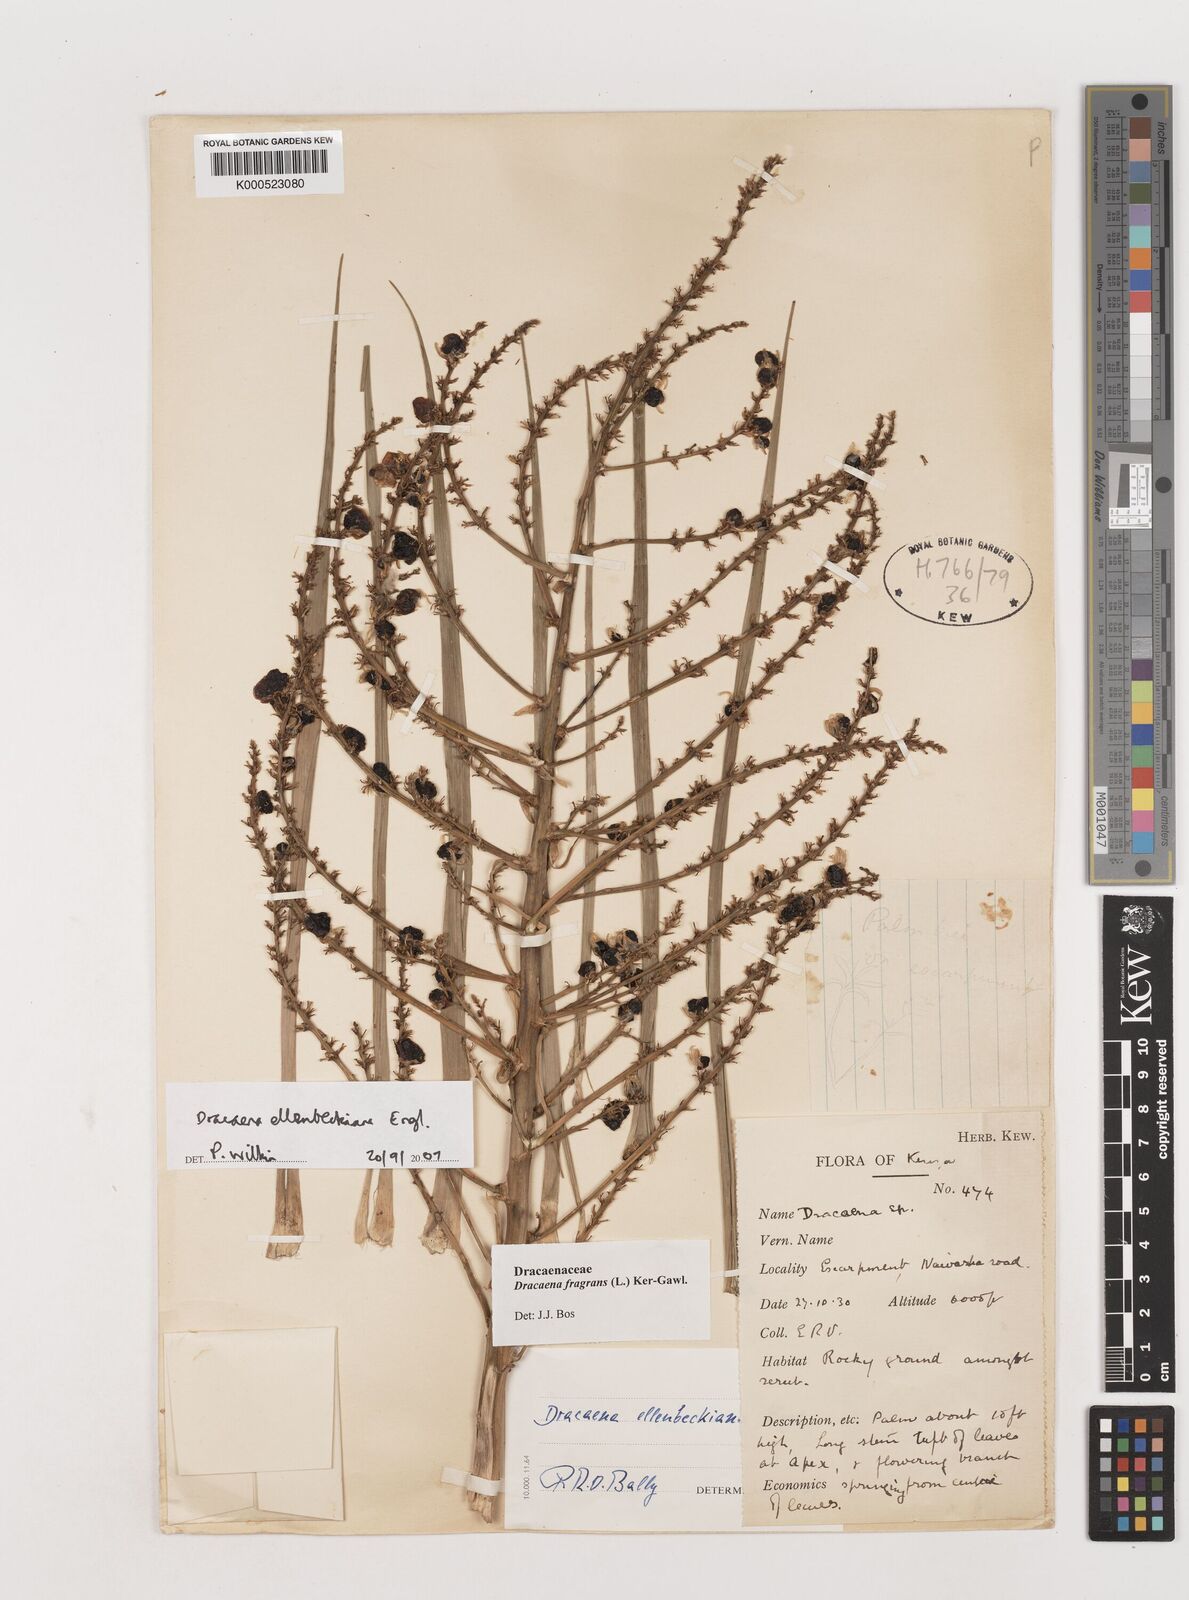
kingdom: Plantae
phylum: Tracheophyta
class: Liliopsida
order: Asparagales
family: Asparagaceae
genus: Dracaena
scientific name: Dracaena ellenbeckiana
